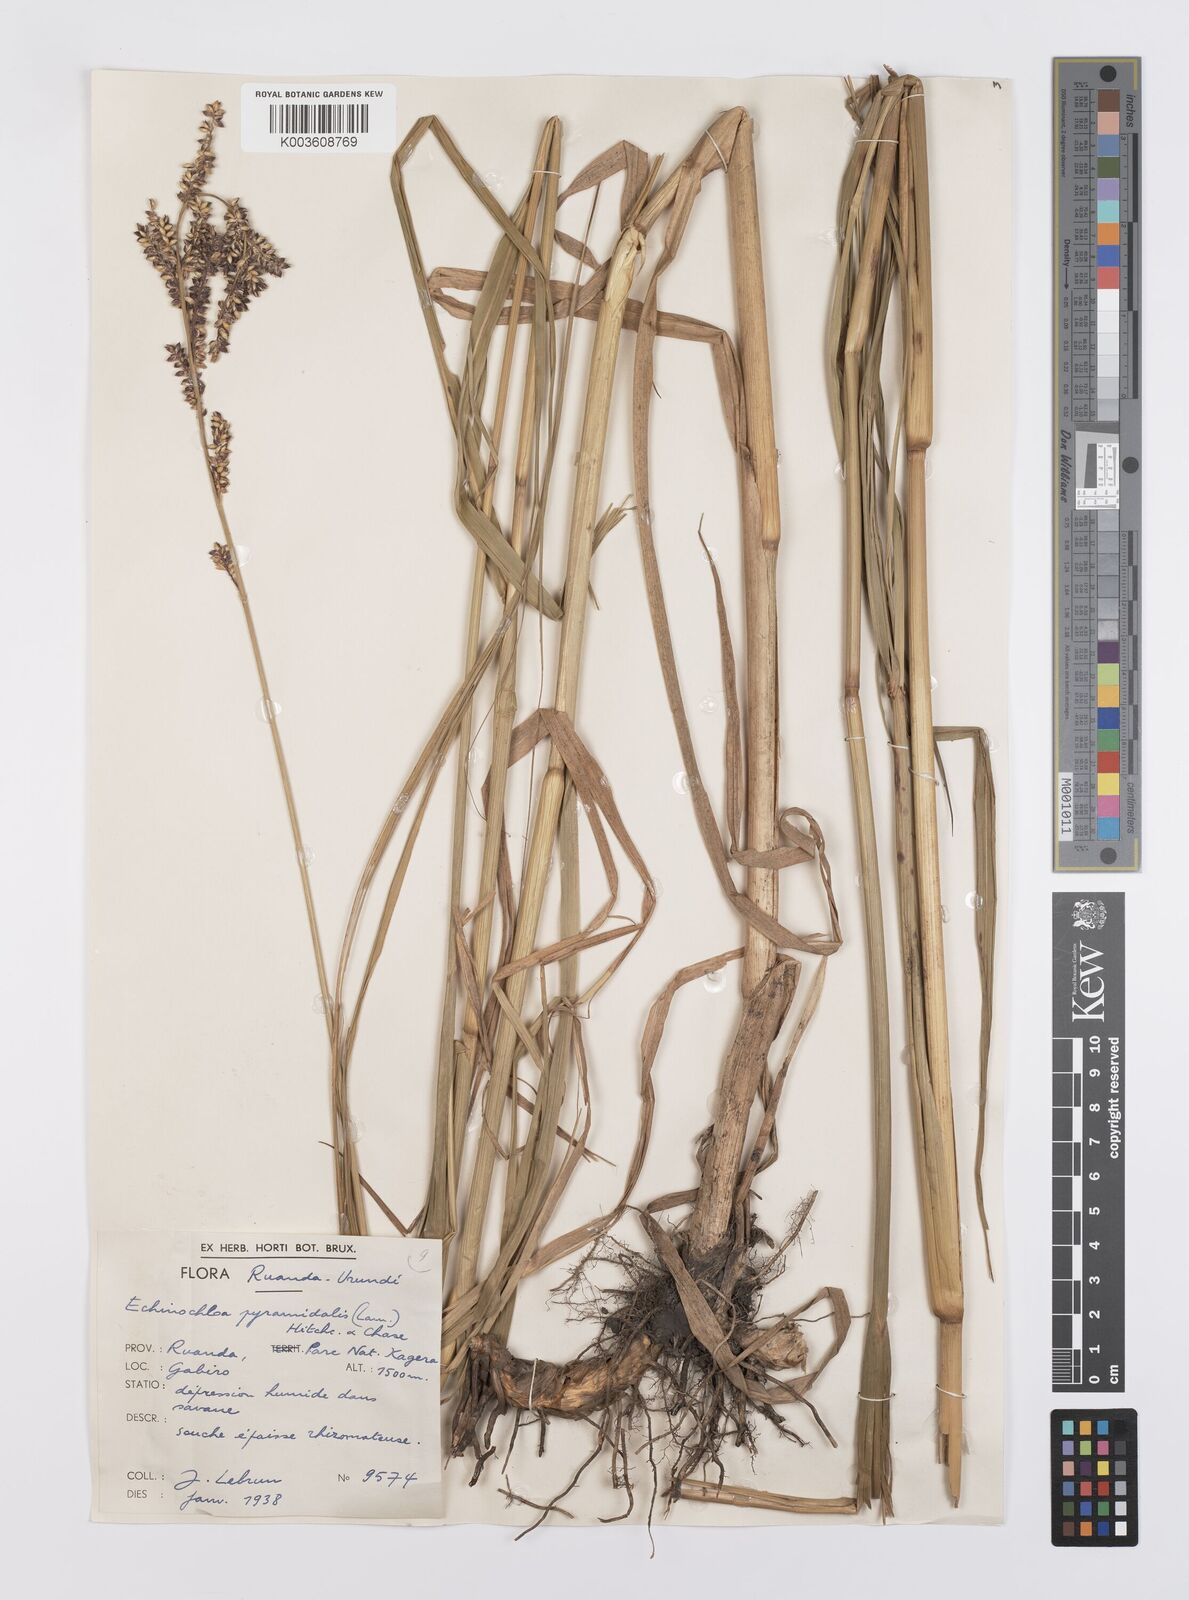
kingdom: Plantae
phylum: Tracheophyta
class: Liliopsida
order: Poales
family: Poaceae
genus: Echinochloa
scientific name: Echinochloa pyramidalis
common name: Antelope grass
